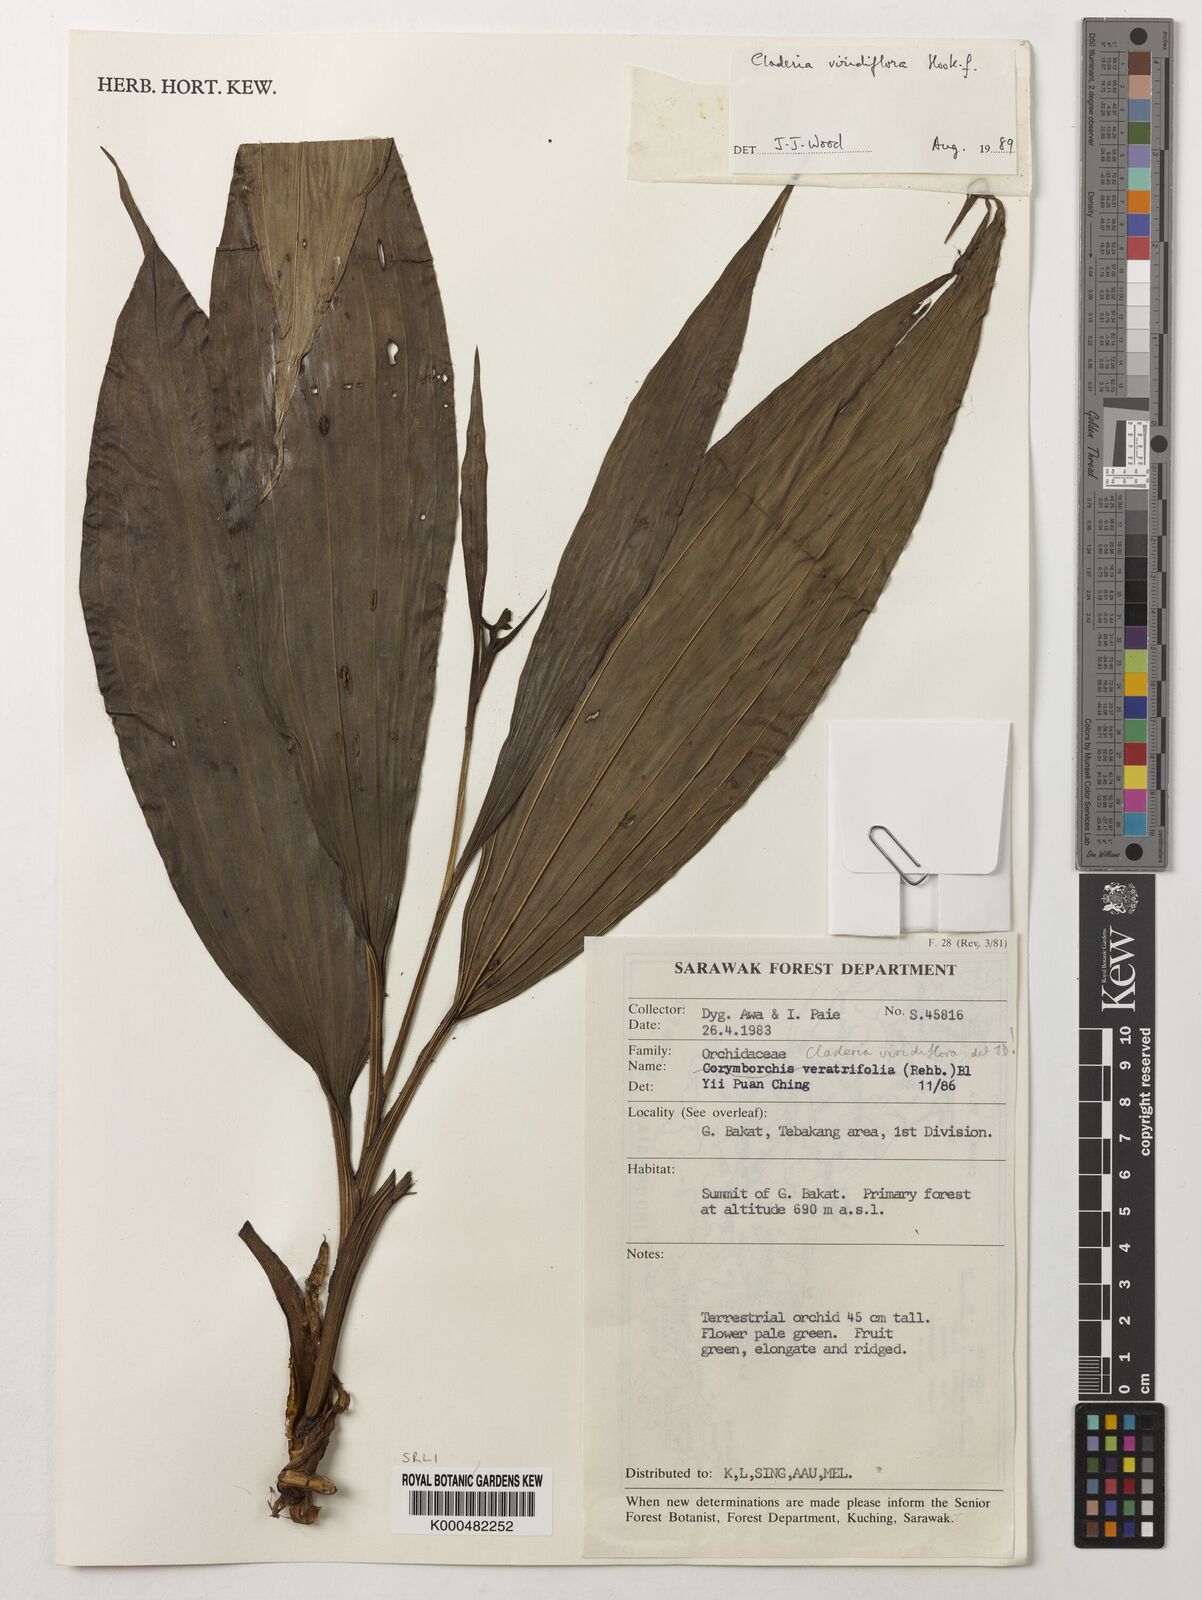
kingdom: Plantae
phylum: Tracheophyta
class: Liliopsida
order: Asparagales
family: Orchidaceae
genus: Claderia
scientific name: Claderia
